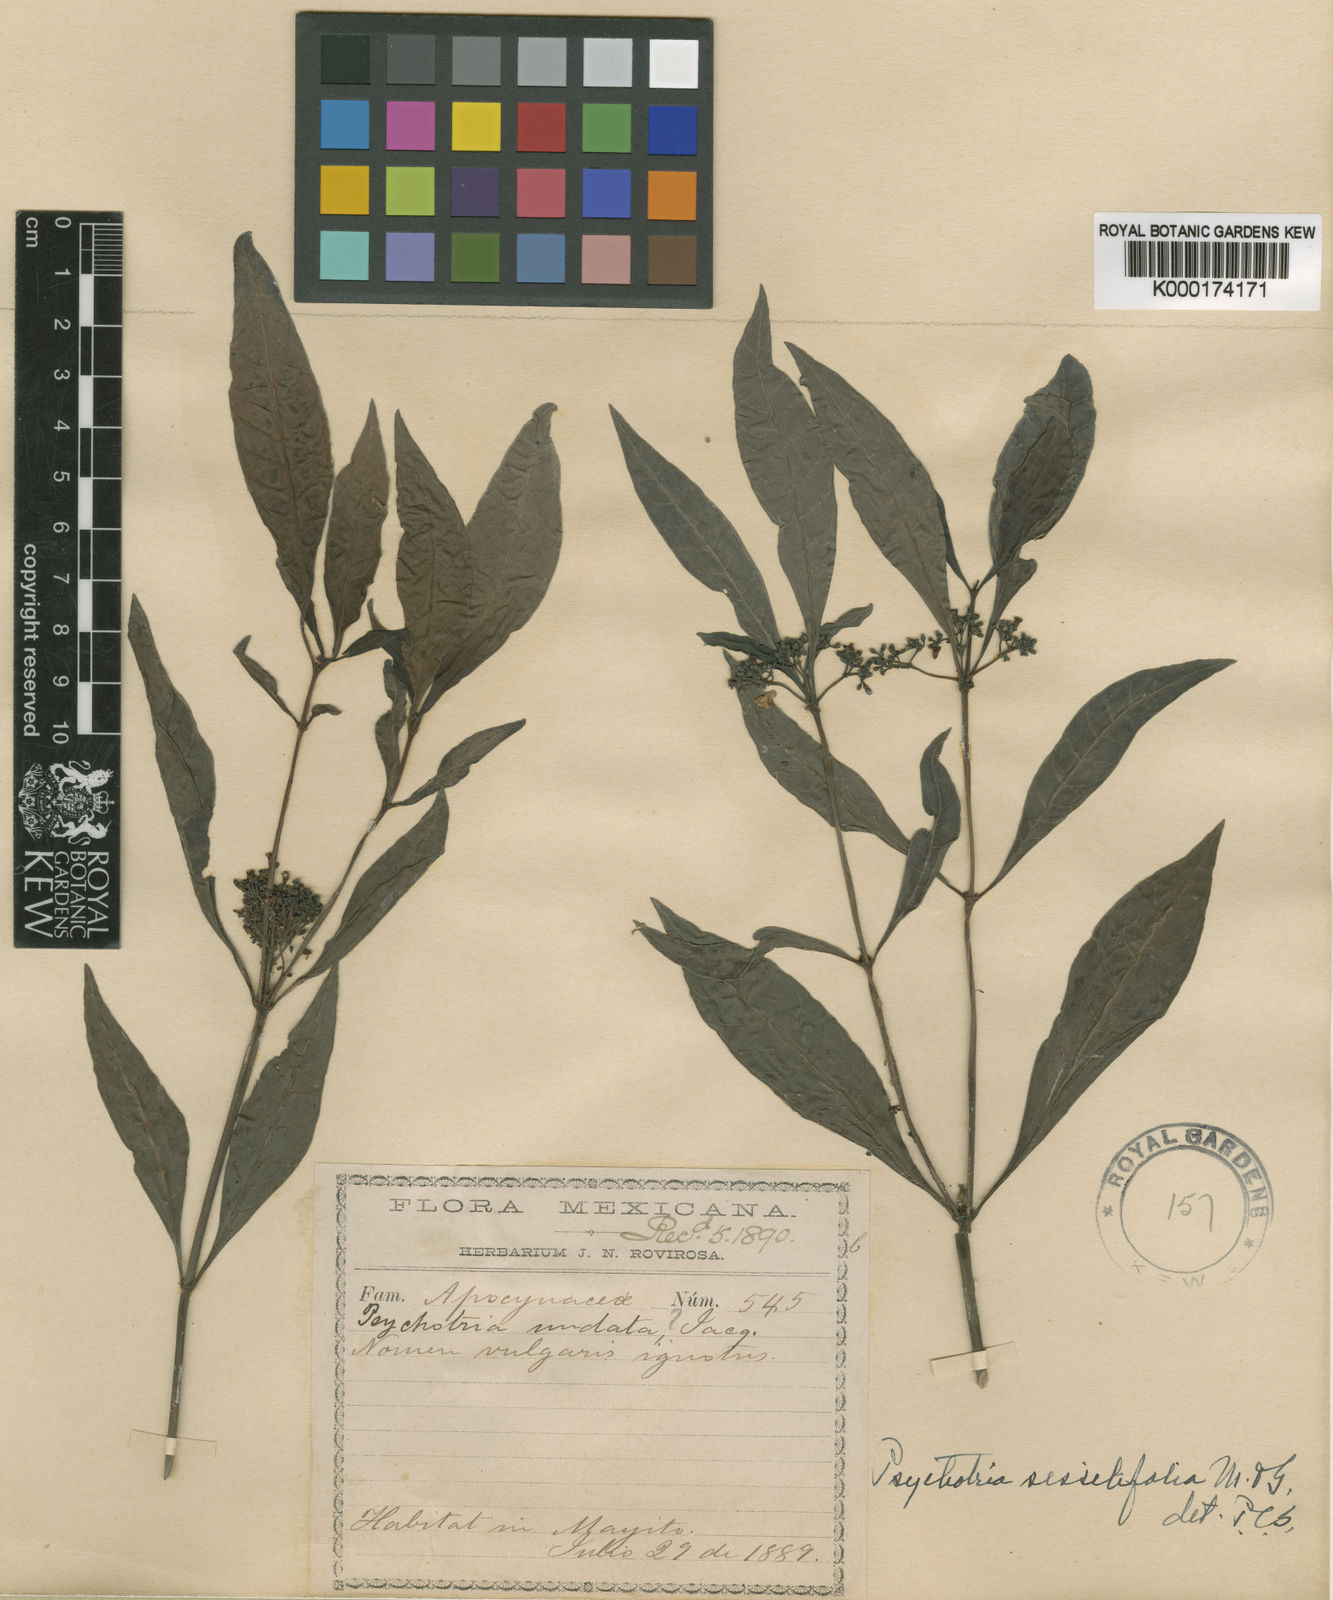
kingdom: Plantae
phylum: Tracheophyta
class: Magnoliopsida
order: Gentianales
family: Rubiaceae
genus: Psychotria
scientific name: Psychotria tenuifolia
